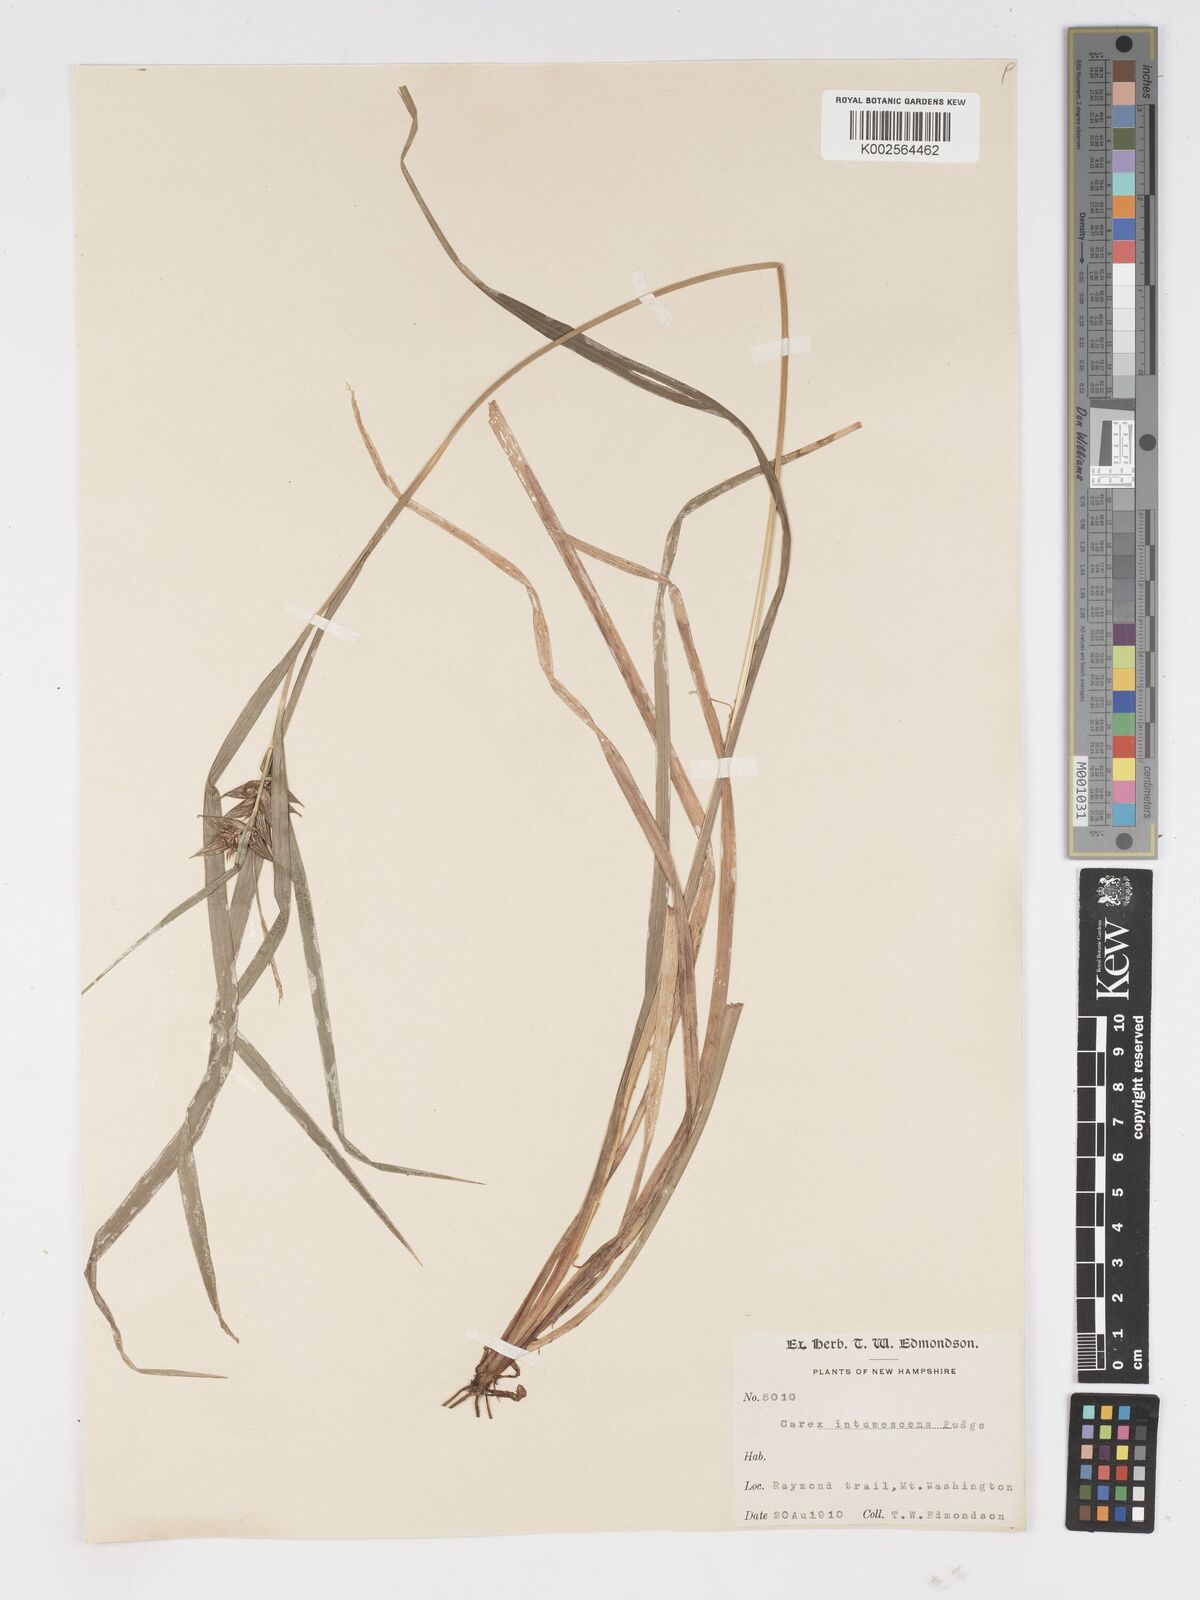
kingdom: Plantae
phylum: Tracheophyta
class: Liliopsida
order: Poales
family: Cyperaceae
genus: Carex
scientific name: Carex intumescens
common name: Greater bladder sedge
